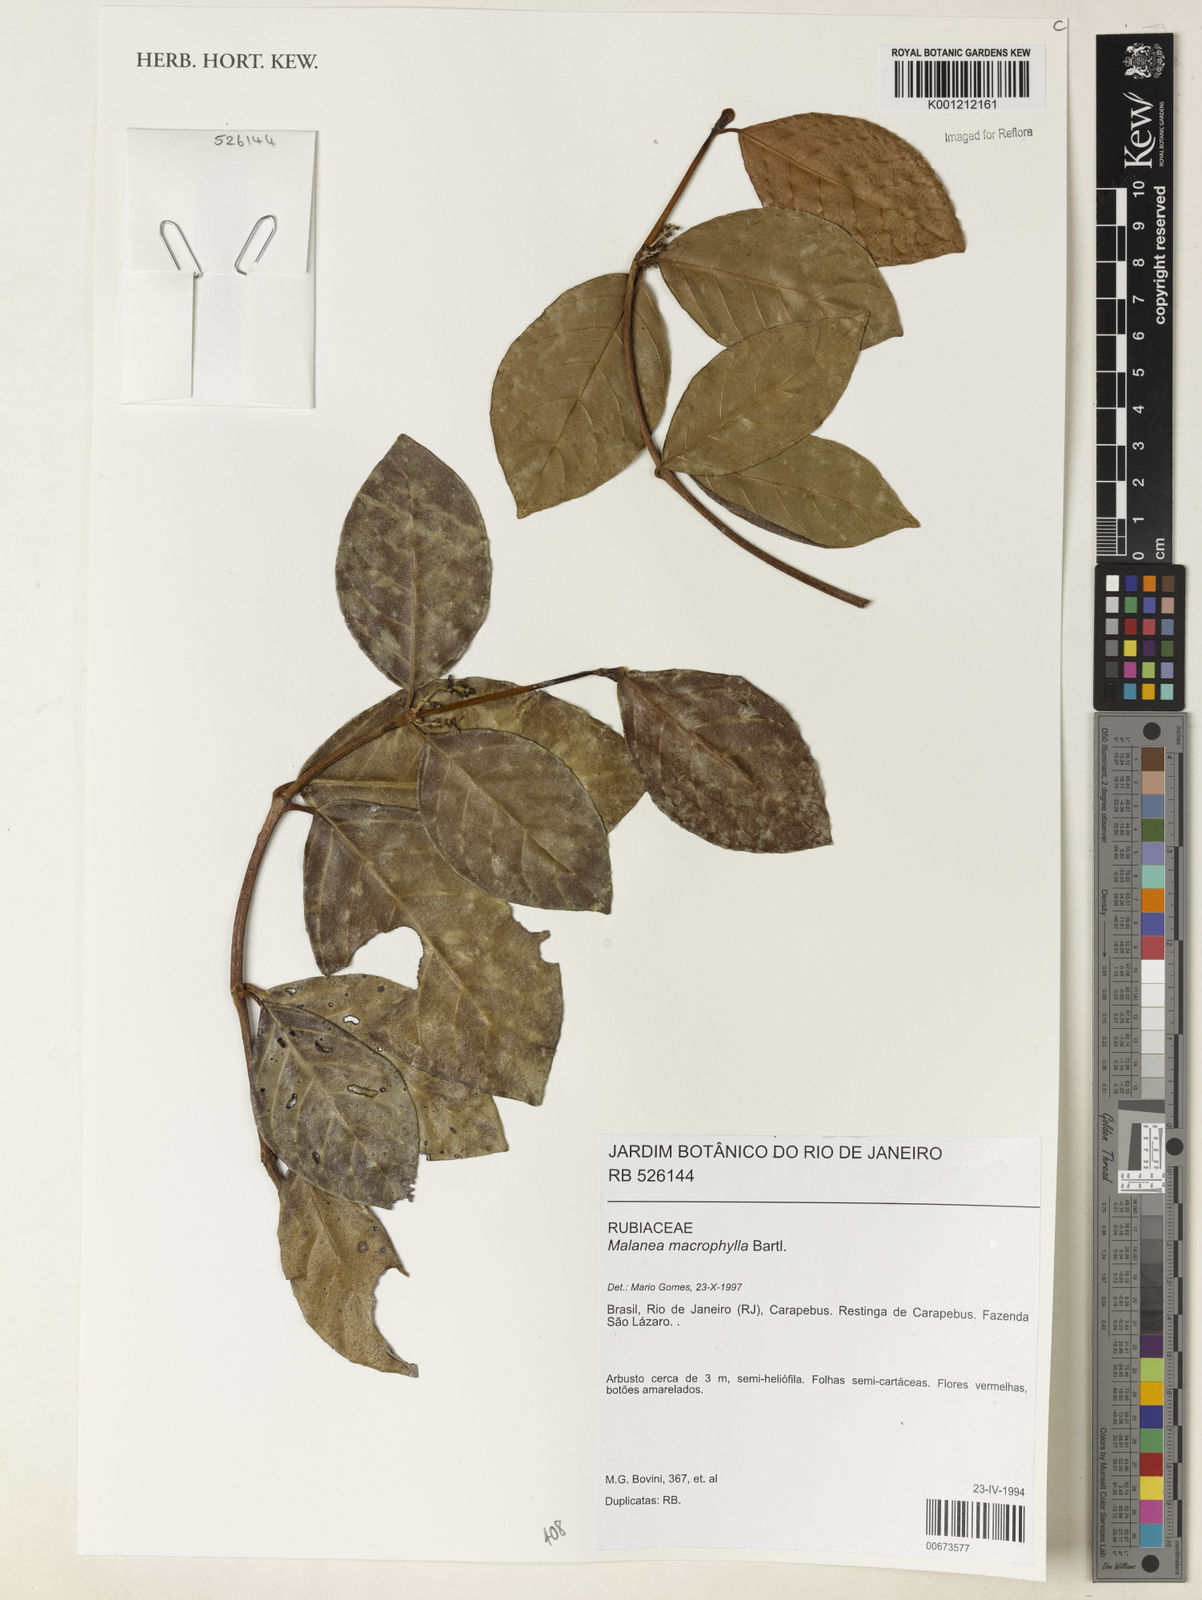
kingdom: Plantae
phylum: Tracheophyta
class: Magnoliopsida
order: Gentianales
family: Rubiaceae
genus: Malanea
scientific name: Malanea glabra
